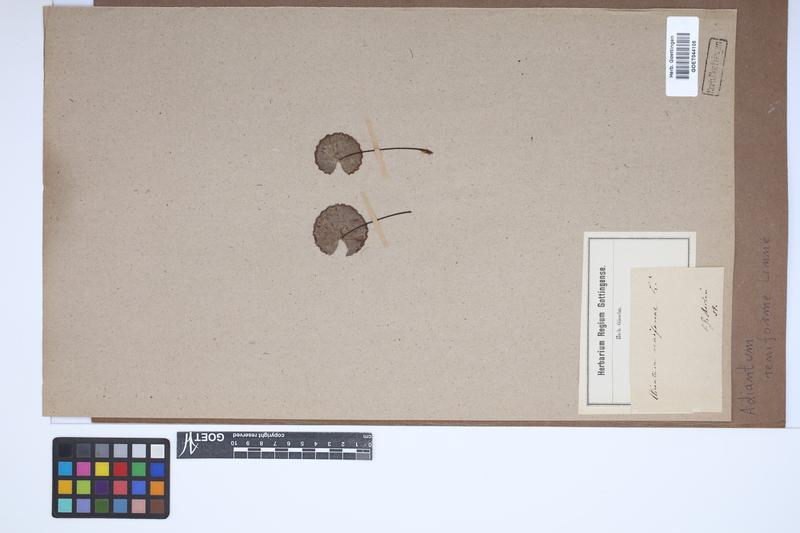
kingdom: Plantae
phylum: Tracheophyta
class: Polypodiopsida
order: Polypodiales
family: Pteridaceae
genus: Adiantum
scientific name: Adiantum reniforme
